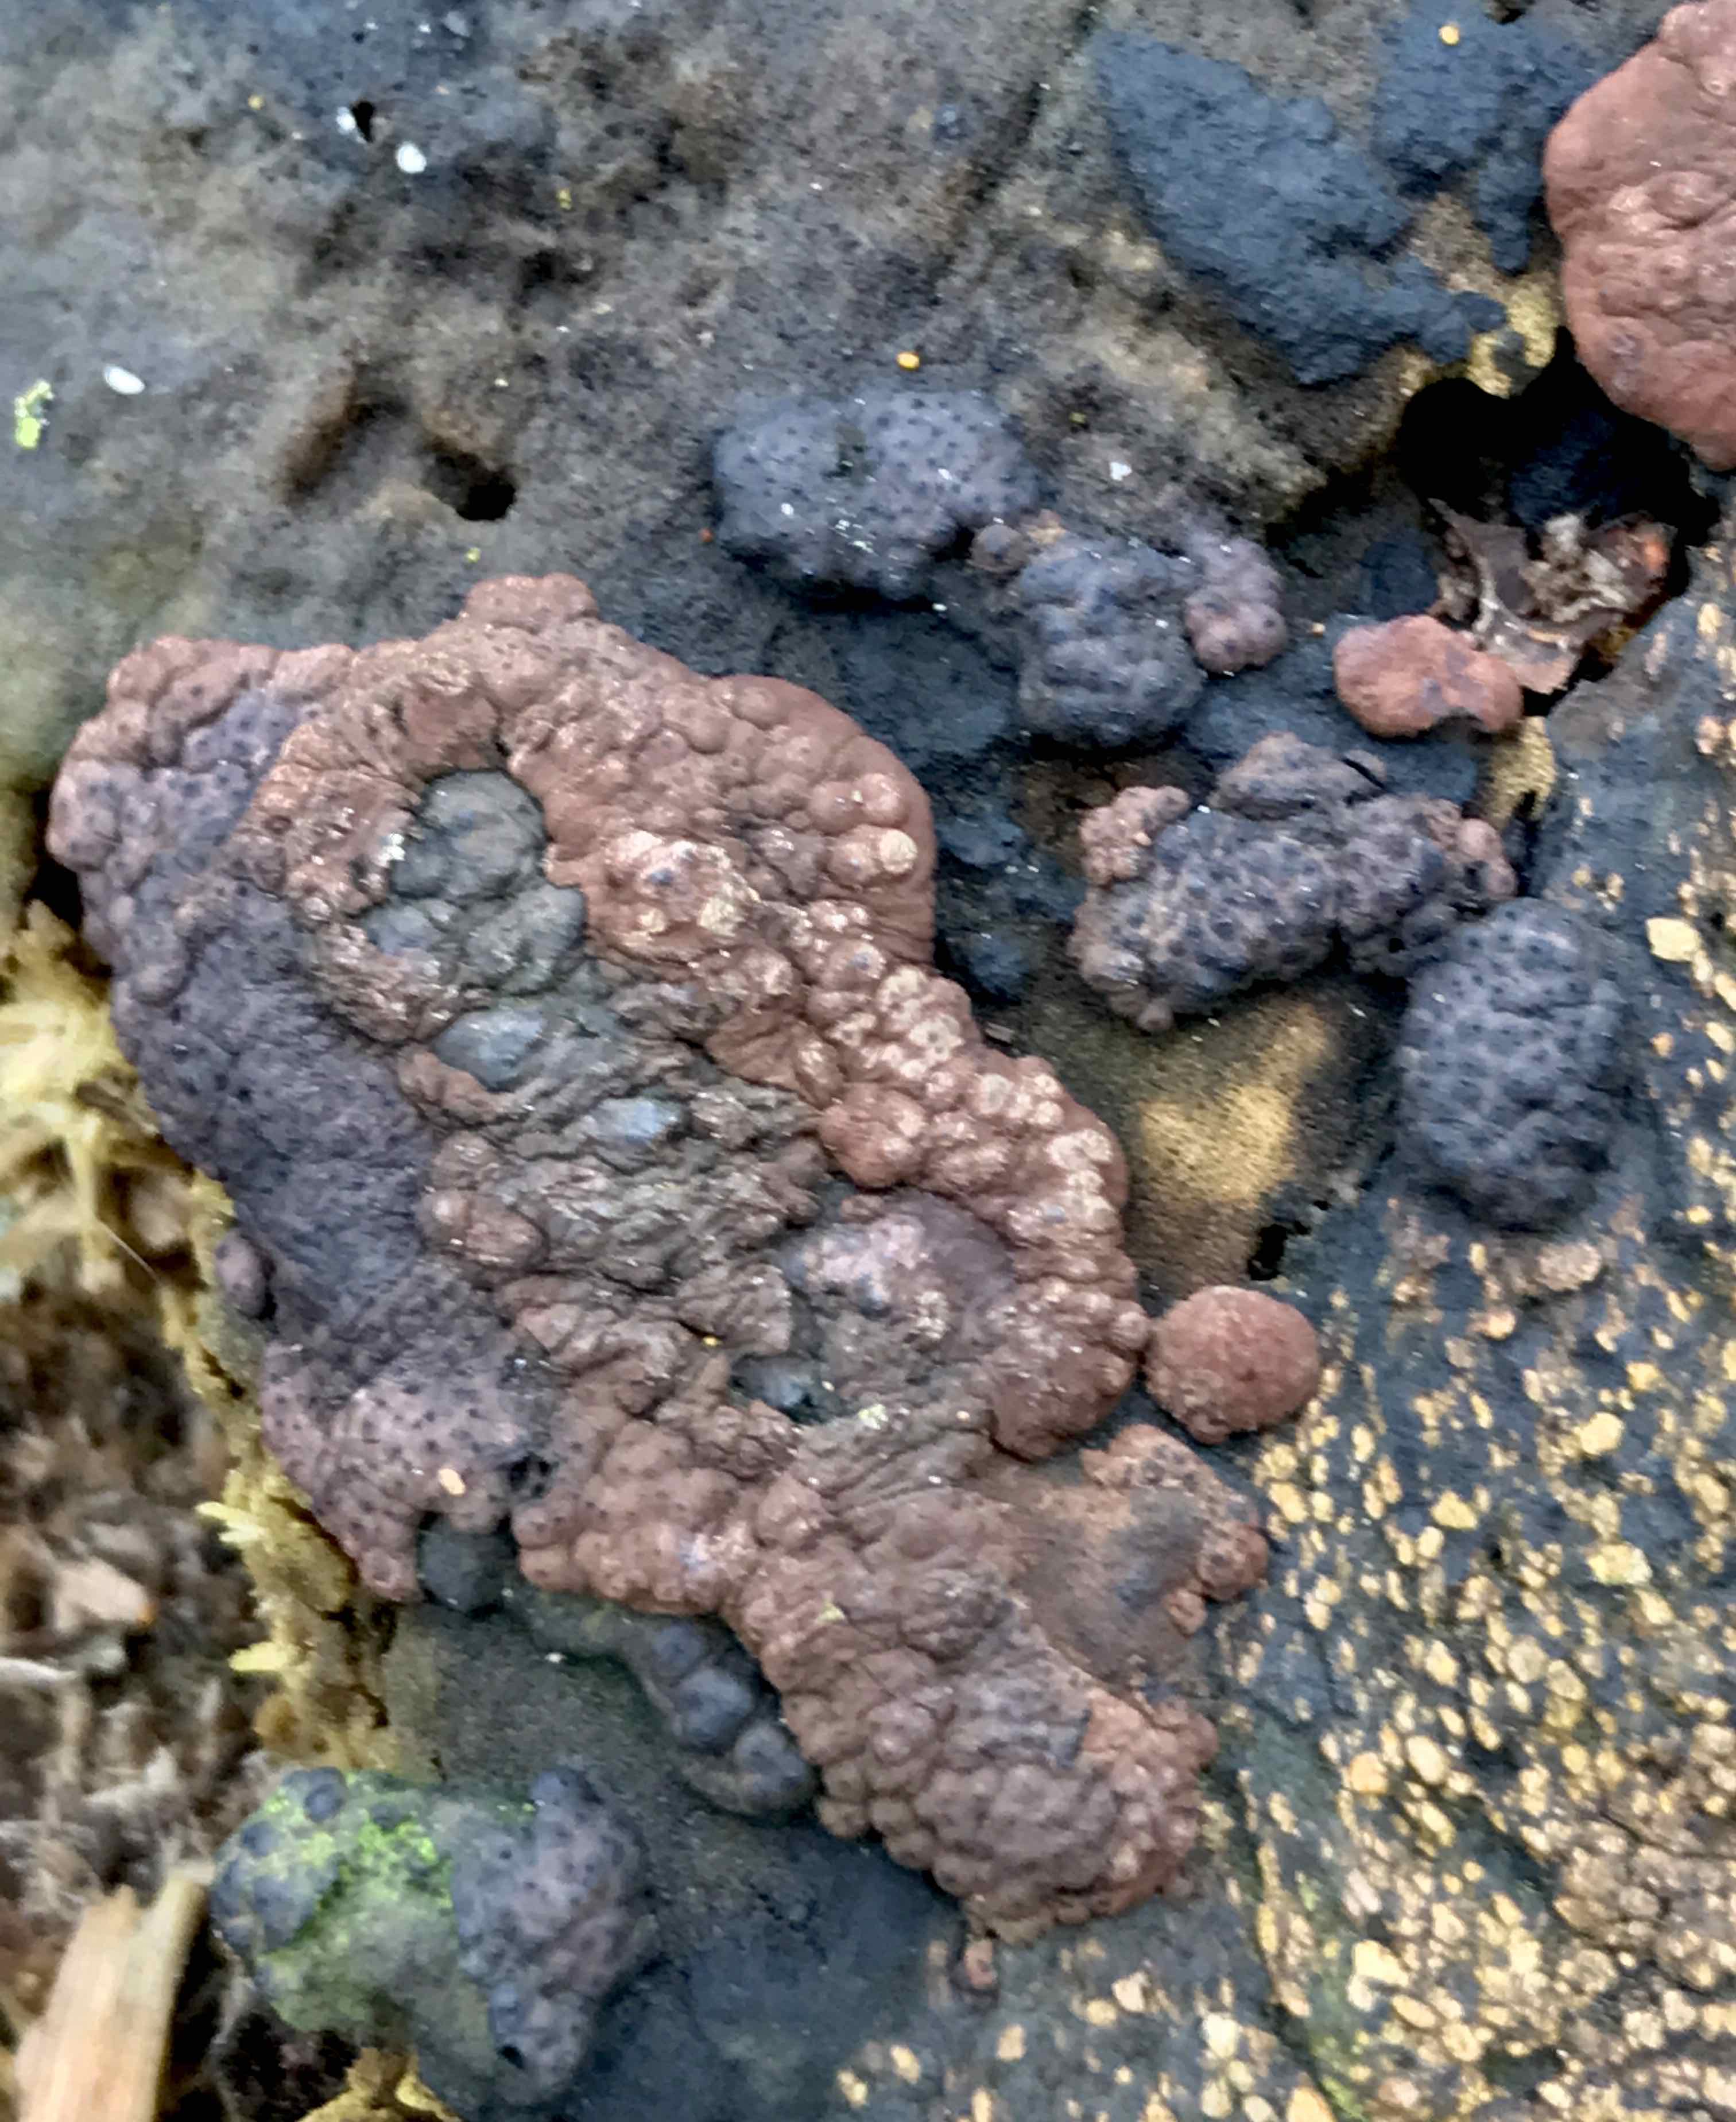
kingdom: Fungi
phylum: Ascomycota
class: Sordariomycetes
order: Xylariales
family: Hypoxylaceae
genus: Jackrogersella
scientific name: Jackrogersella multiformis
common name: foranderlig kulbær
